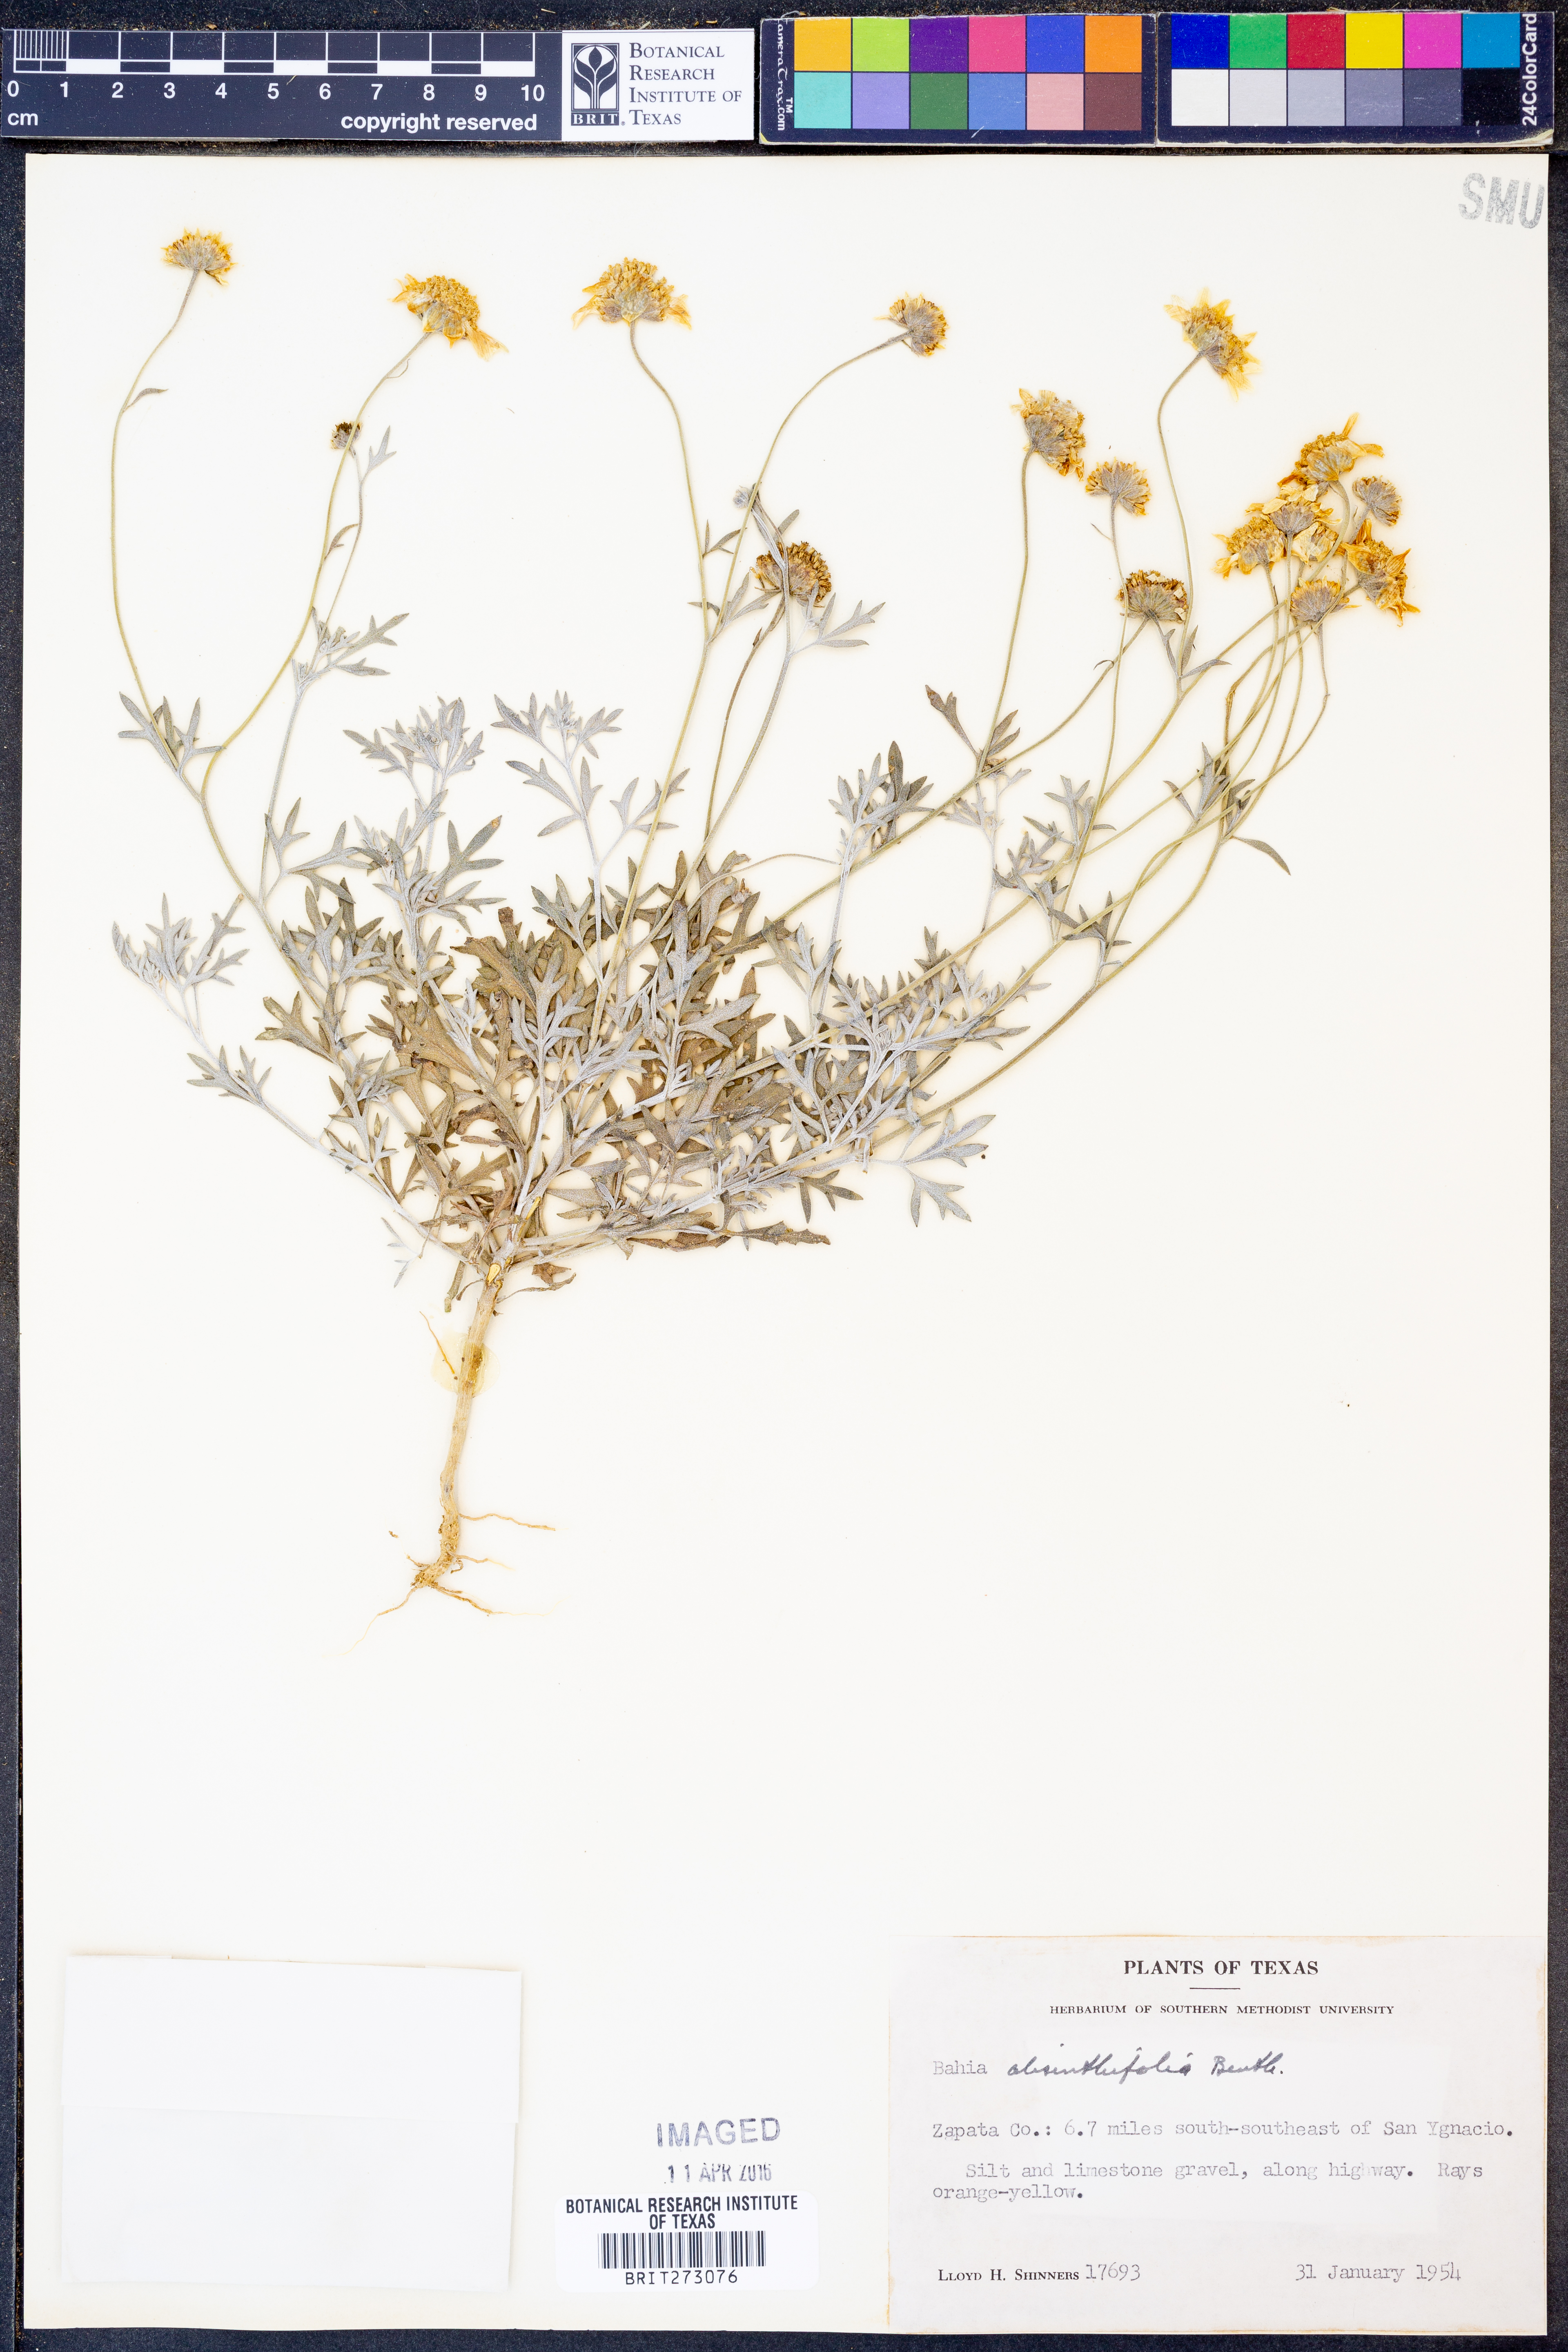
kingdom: Plantae
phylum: Tracheophyta
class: Magnoliopsida
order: Asterales
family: Asteraceae
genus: Picradeniopsis
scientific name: Picradeniopsis absinthifolia
